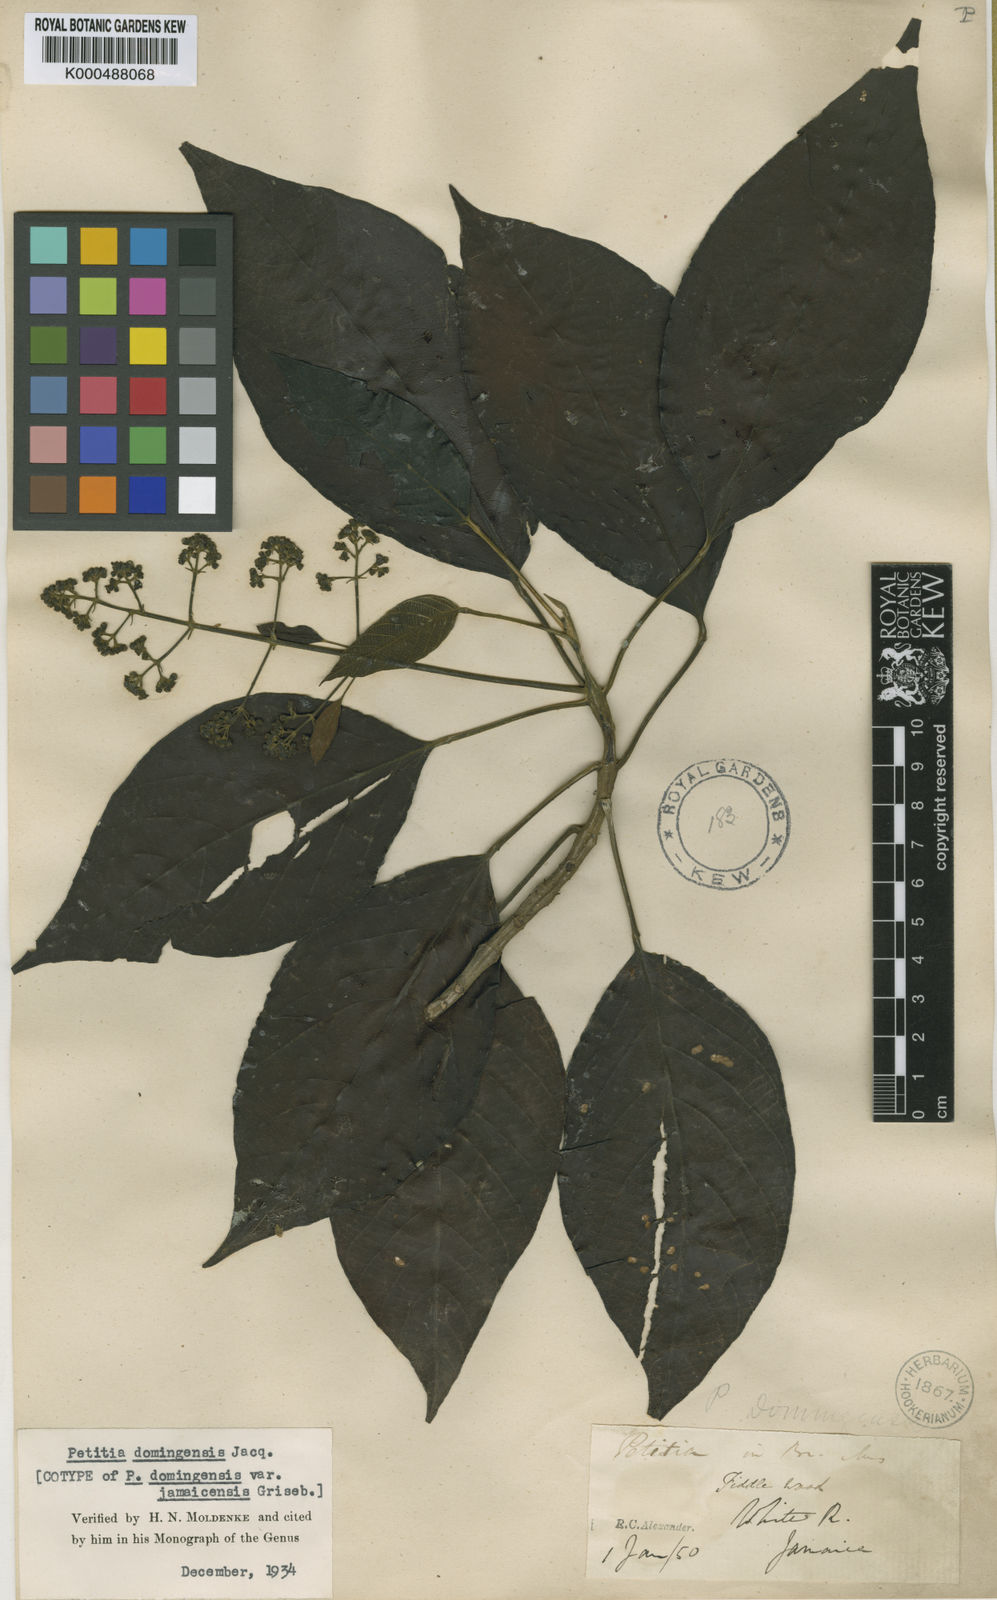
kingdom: Plantae
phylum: Tracheophyta
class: Magnoliopsida
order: Lamiales
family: Lamiaceae
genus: Petitia
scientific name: Petitia domingensis
